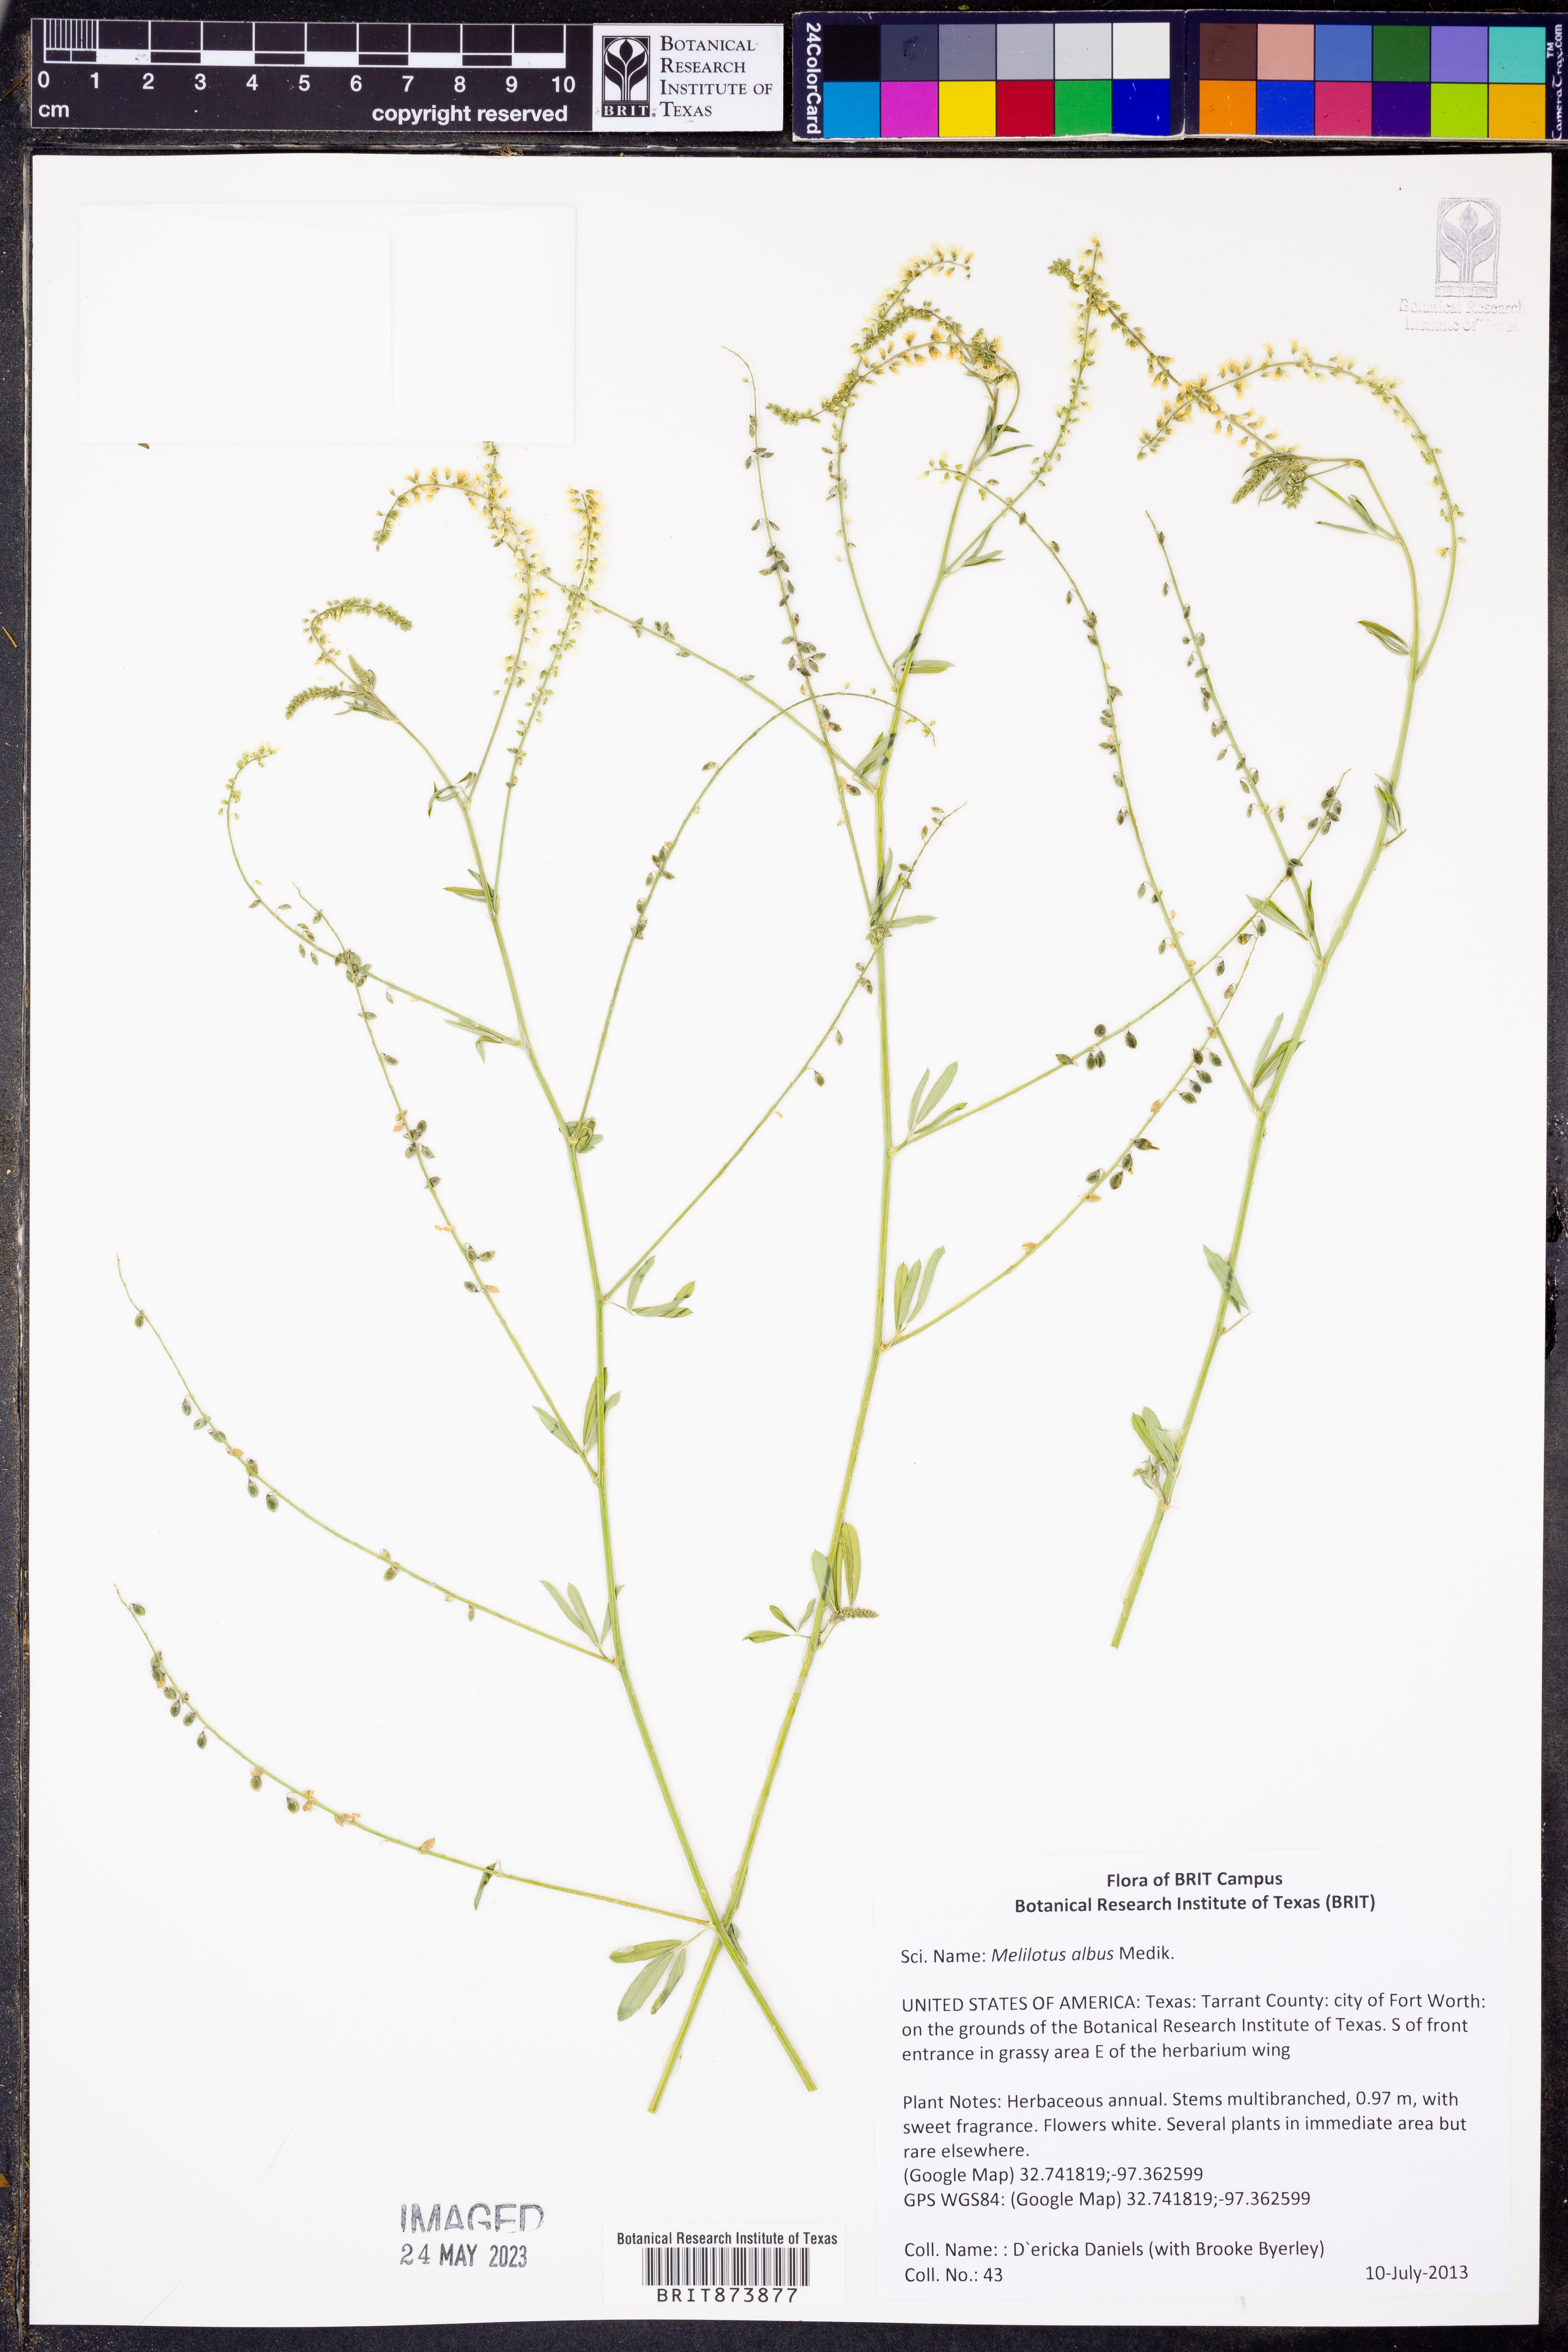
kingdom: Plantae
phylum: Tracheophyta
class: Magnoliopsida
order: Fabales
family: Fabaceae
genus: Melilotus
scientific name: Melilotus albus
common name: White melilot
